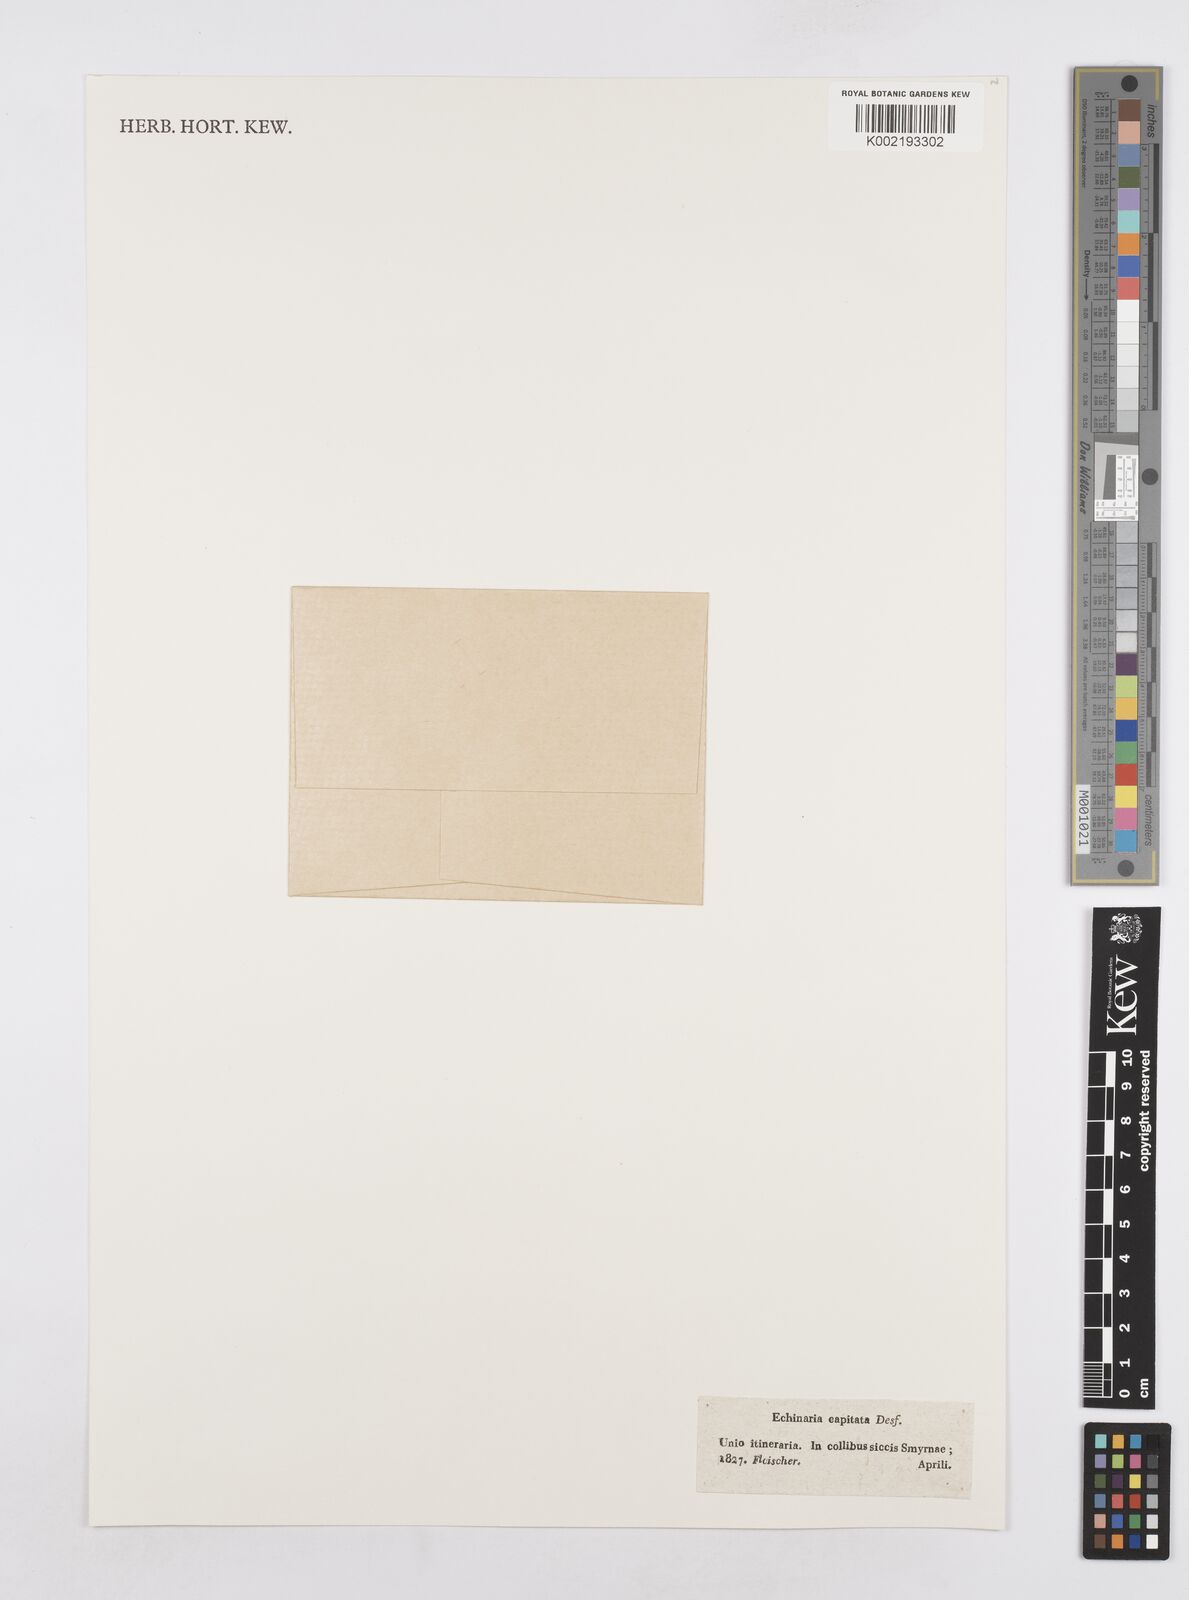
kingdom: Plantae
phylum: Tracheophyta
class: Liliopsida
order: Poales
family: Poaceae
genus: Echinaria
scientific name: Echinaria capitata
